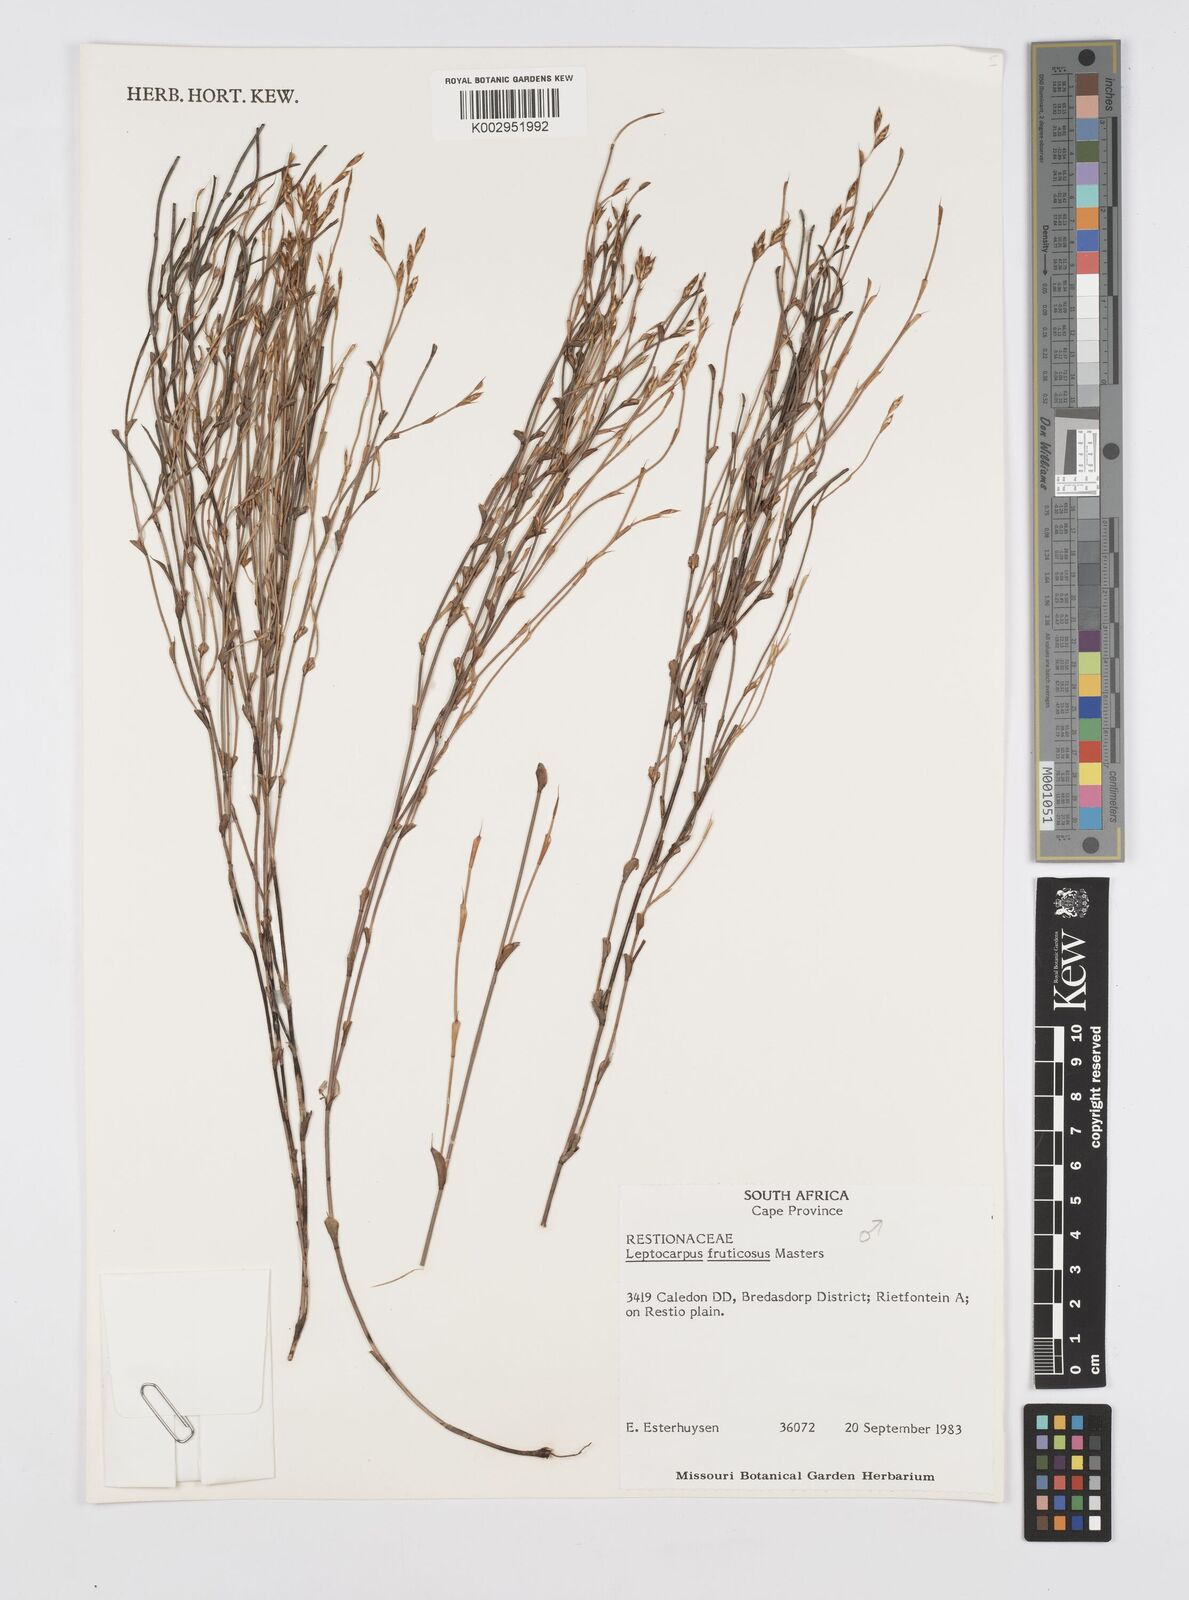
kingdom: Plantae
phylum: Tracheophyta
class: Liliopsida
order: Poales
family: Restionaceae
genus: Rhodocoma
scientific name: Rhodocoma fruticosa
